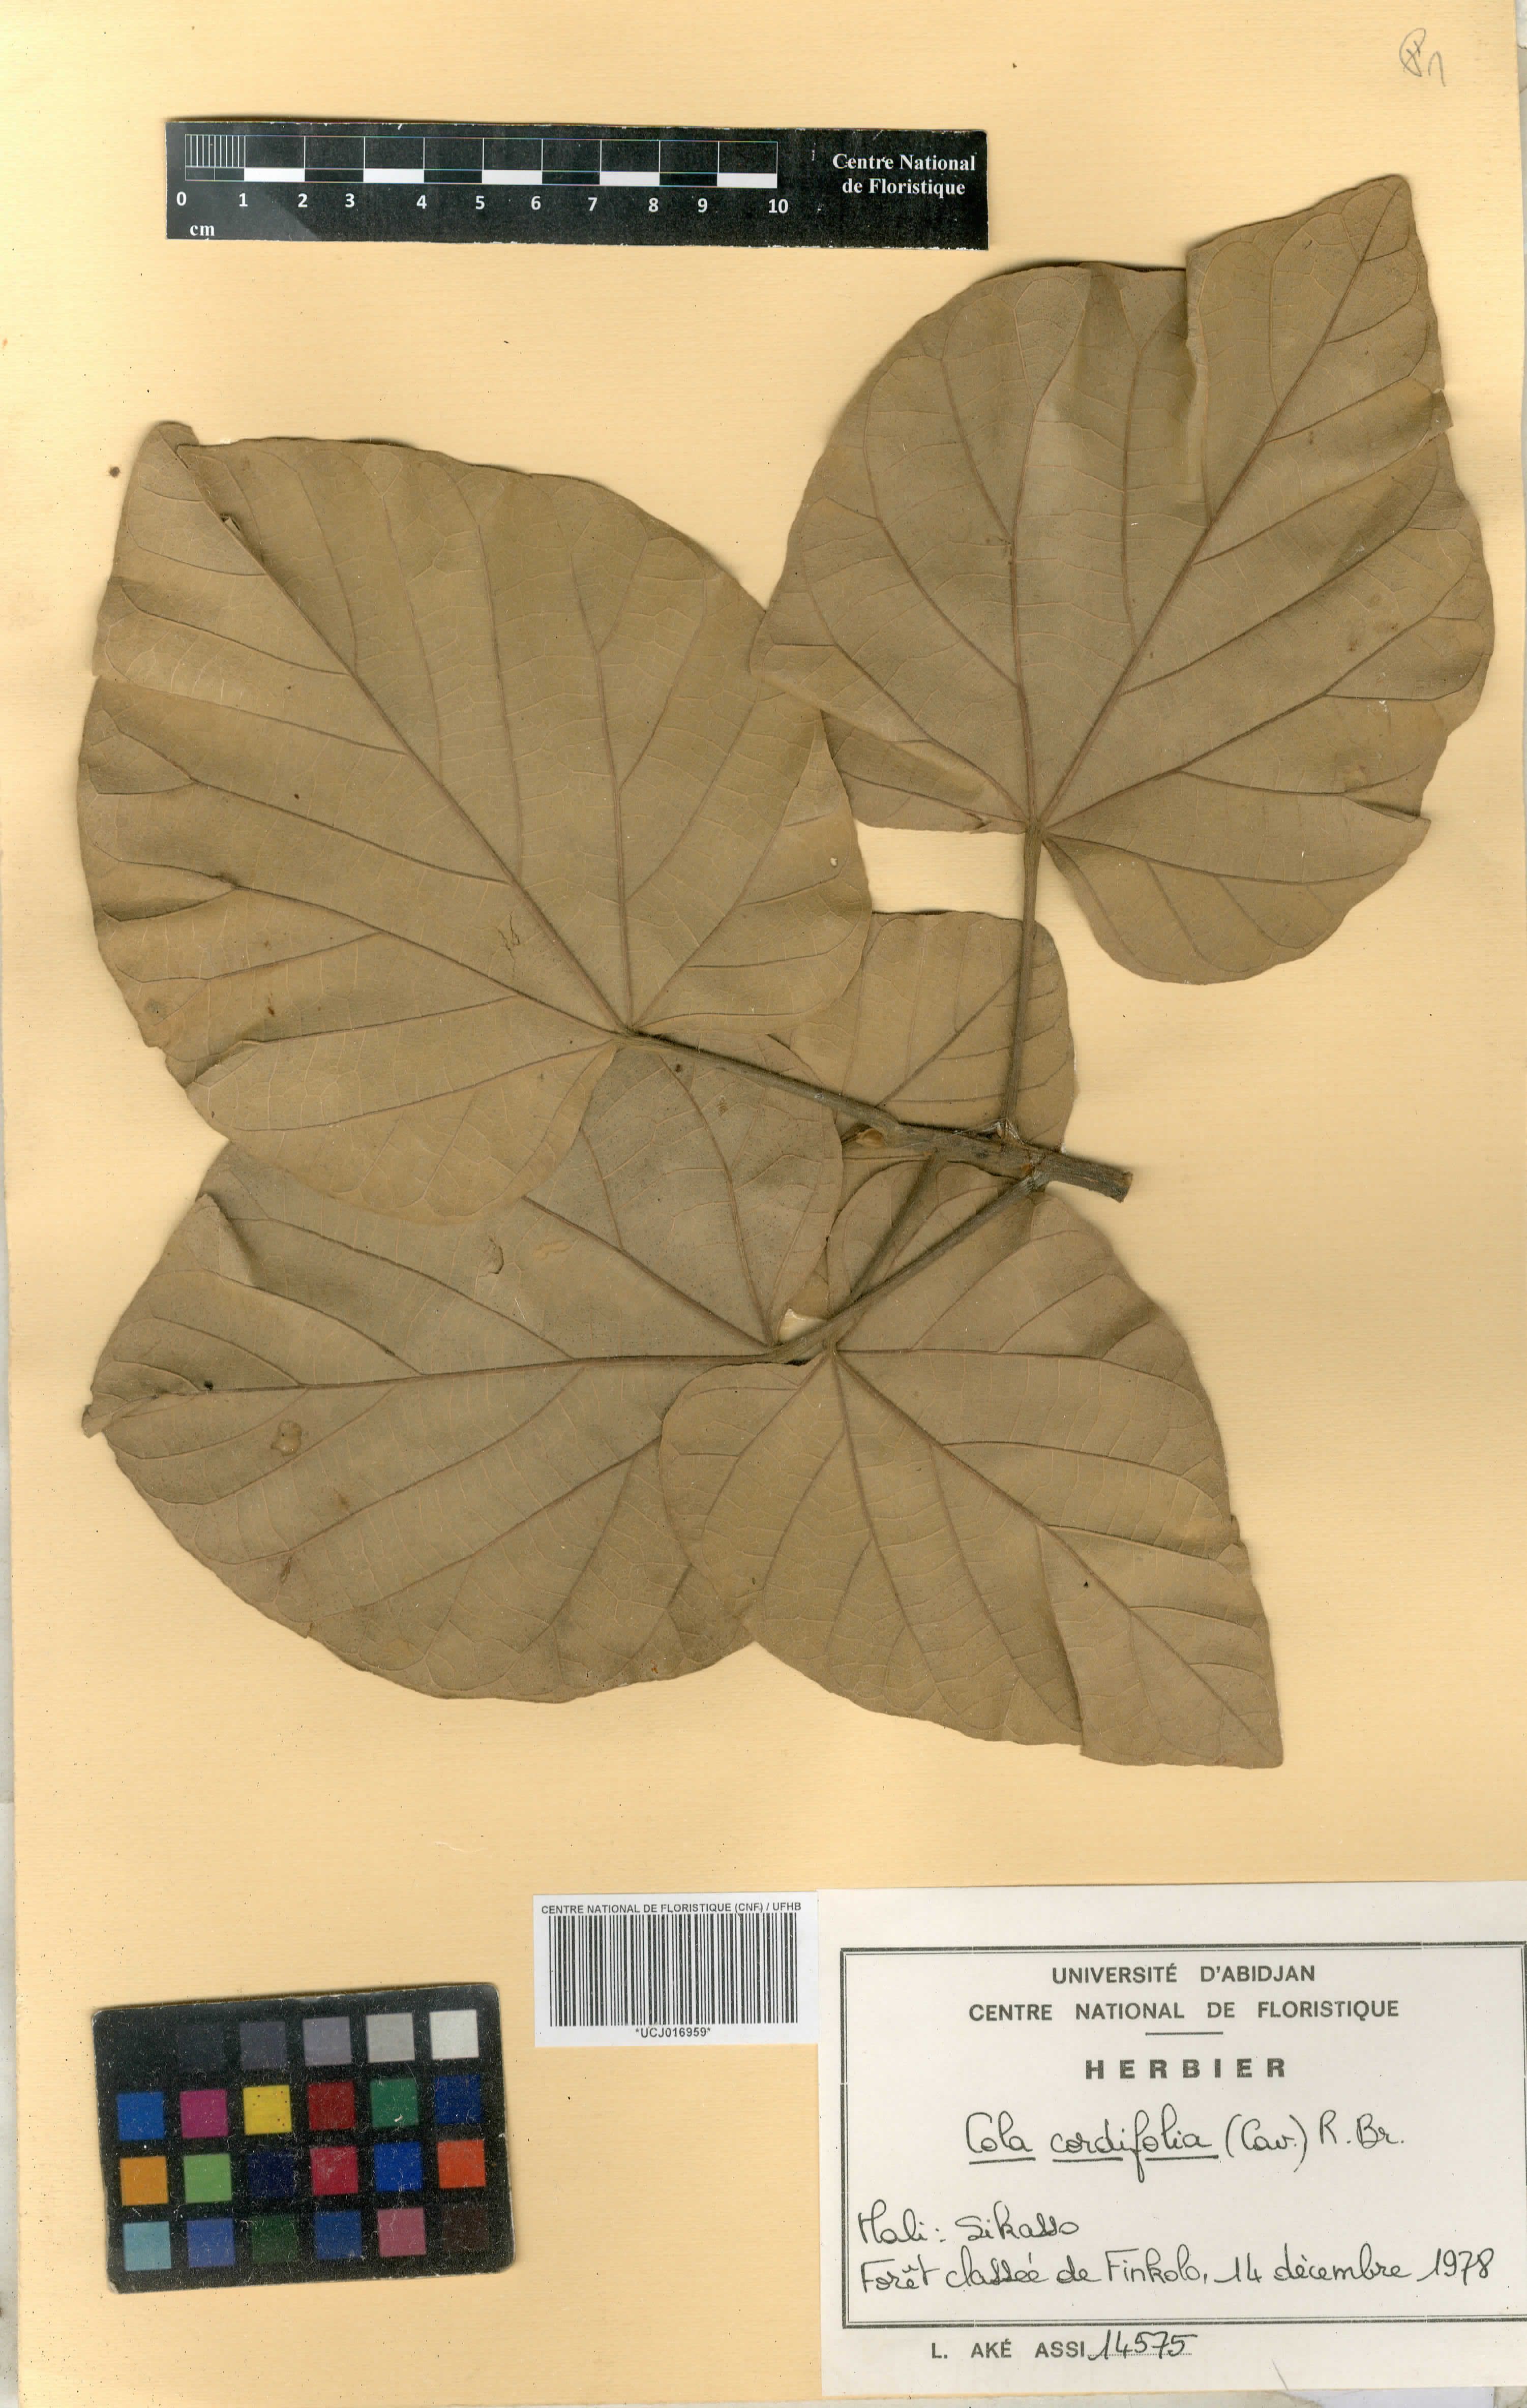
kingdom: Plantae
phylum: Tracheophyta
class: Magnoliopsida
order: Malvales
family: Malvaceae
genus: Cola
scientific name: Cola cordifolia
